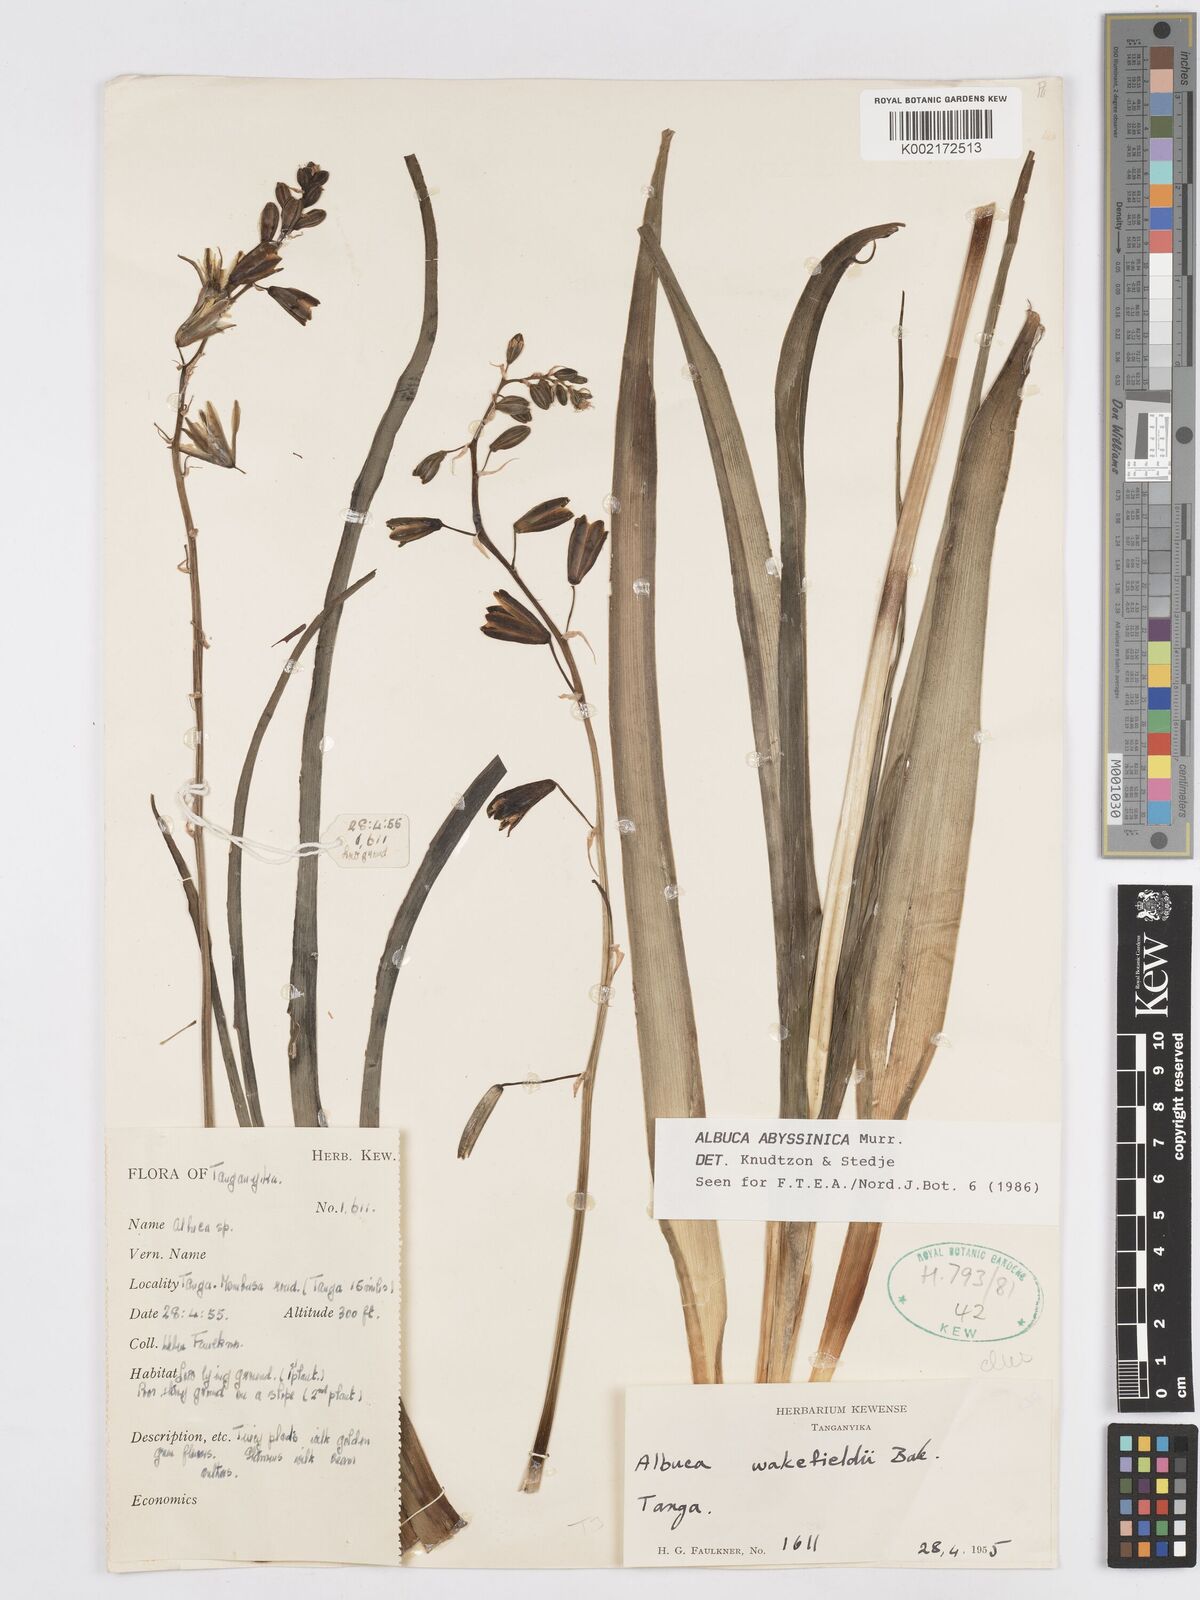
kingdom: Plantae
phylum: Tracheophyta
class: Liliopsida
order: Asparagales
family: Asparagaceae
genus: Albuca
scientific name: Albuca abyssinica
